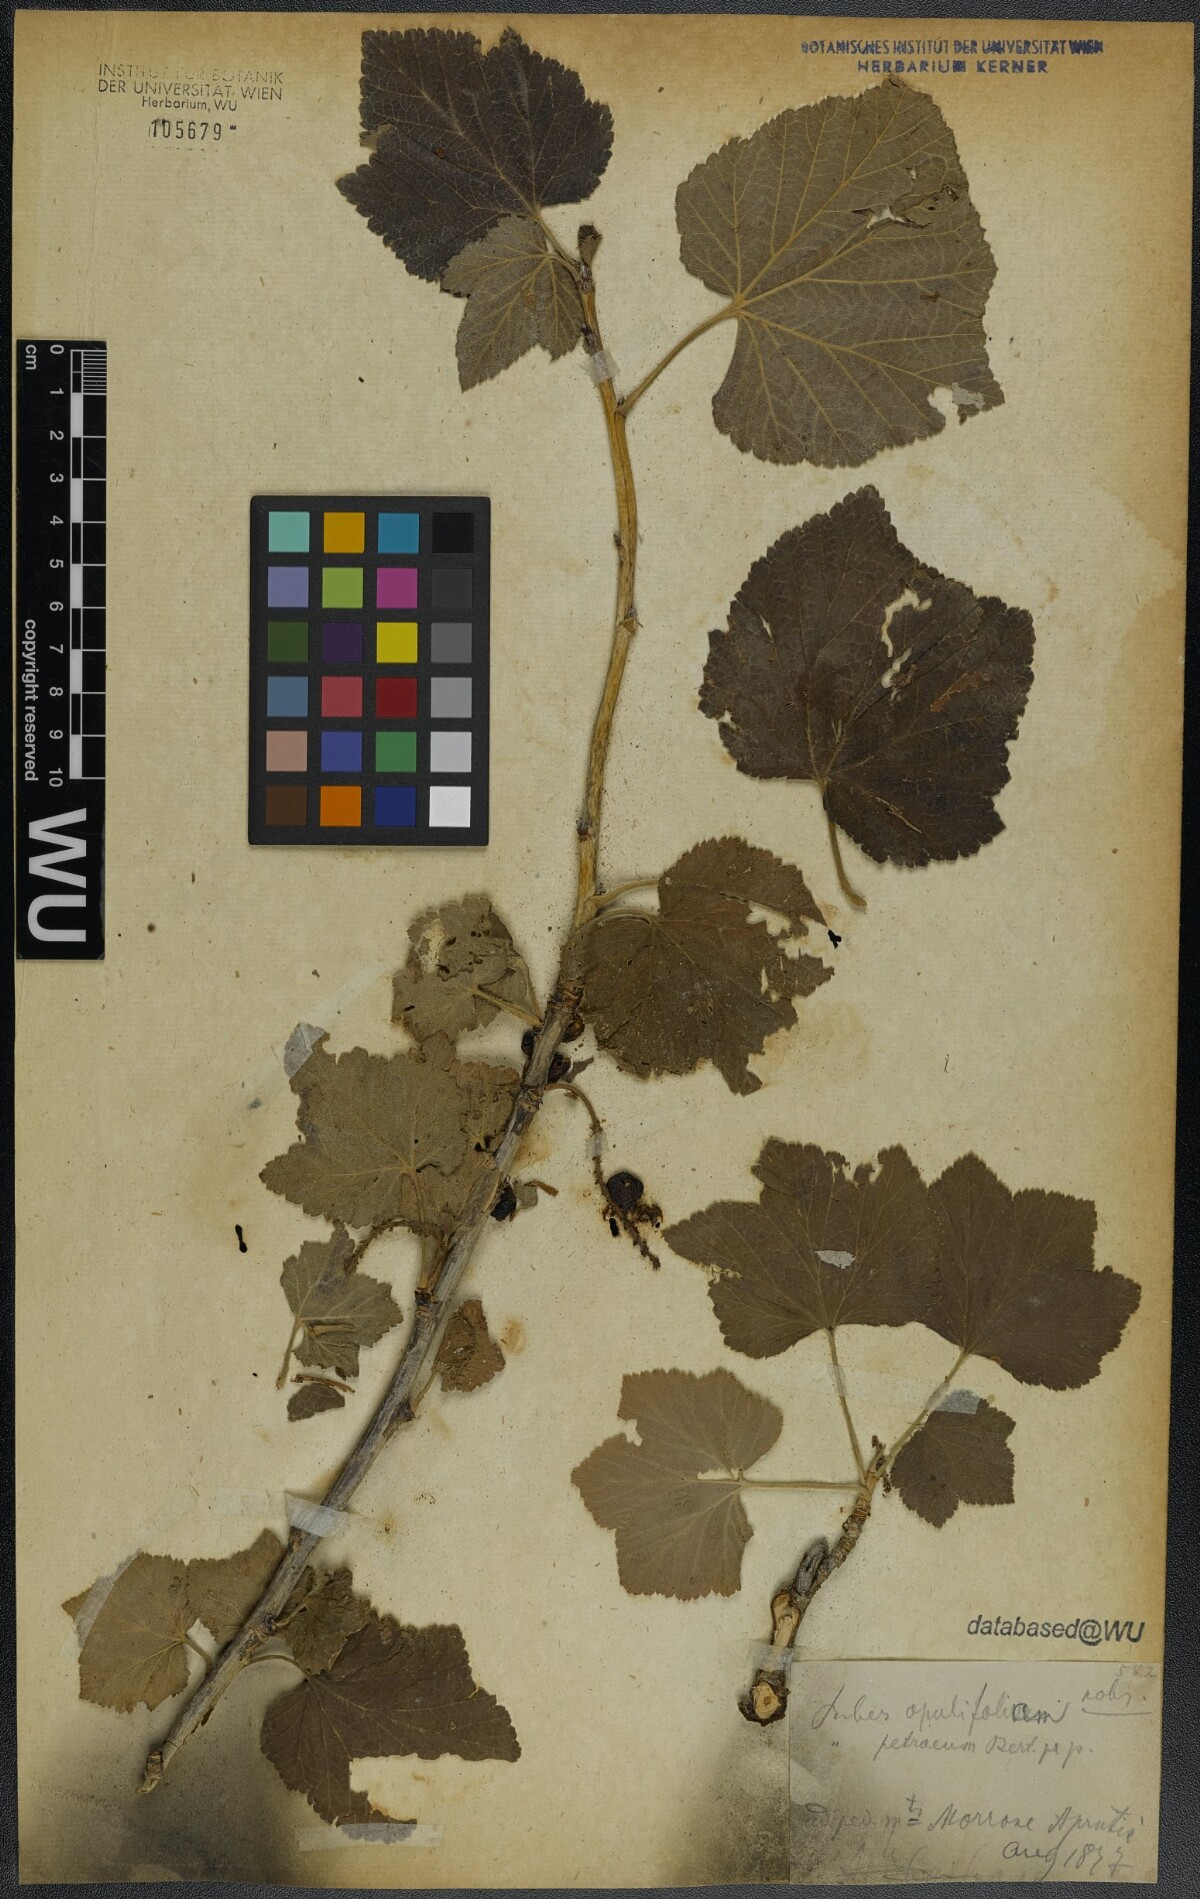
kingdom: Plantae
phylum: Tracheophyta
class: Magnoliopsida
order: Saxifragales
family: Grossulariaceae
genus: Ribes
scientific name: Ribes multiflorum
